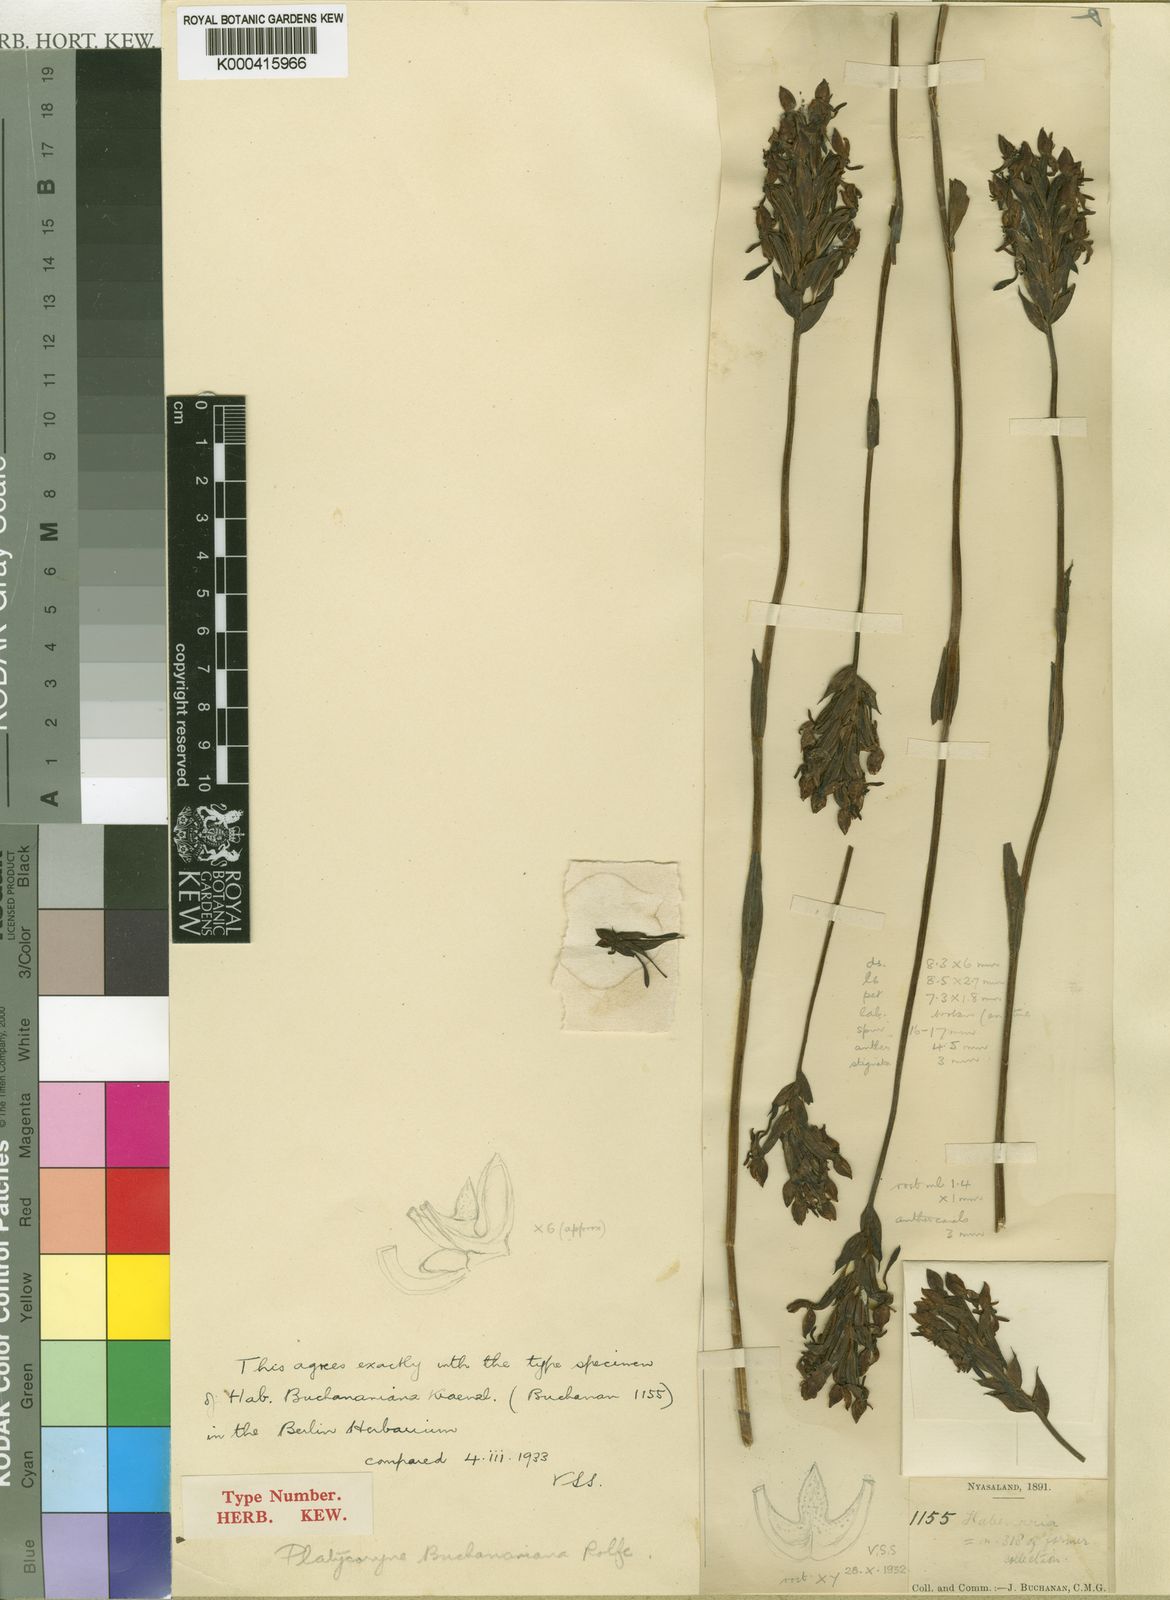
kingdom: Plantae
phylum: Tracheophyta
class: Liliopsida
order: Asparagales
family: Orchidaceae
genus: Platycoryne
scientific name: Platycoryne buchananiana
